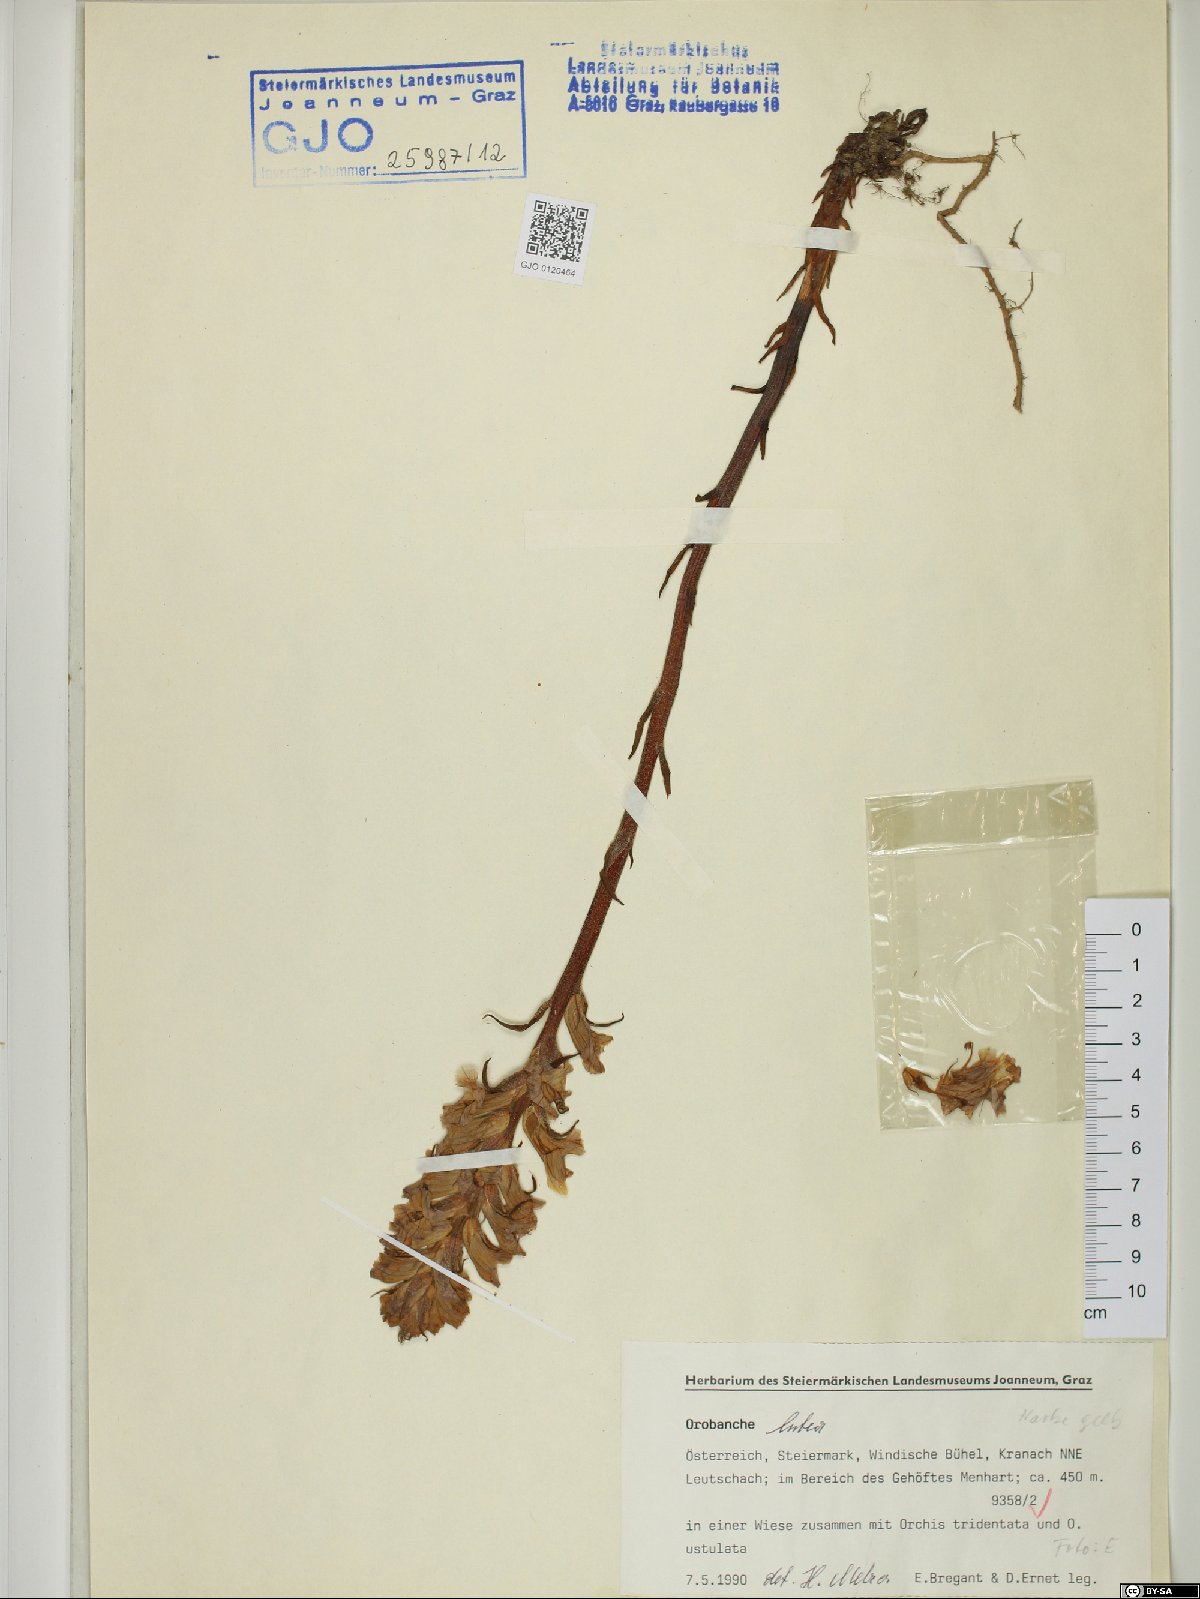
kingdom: Plantae
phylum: Tracheophyta
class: Magnoliopsida
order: Lamiales
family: Orobanchaceae
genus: Orobanche
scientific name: Orobanche lutea
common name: Yellow broomrape
